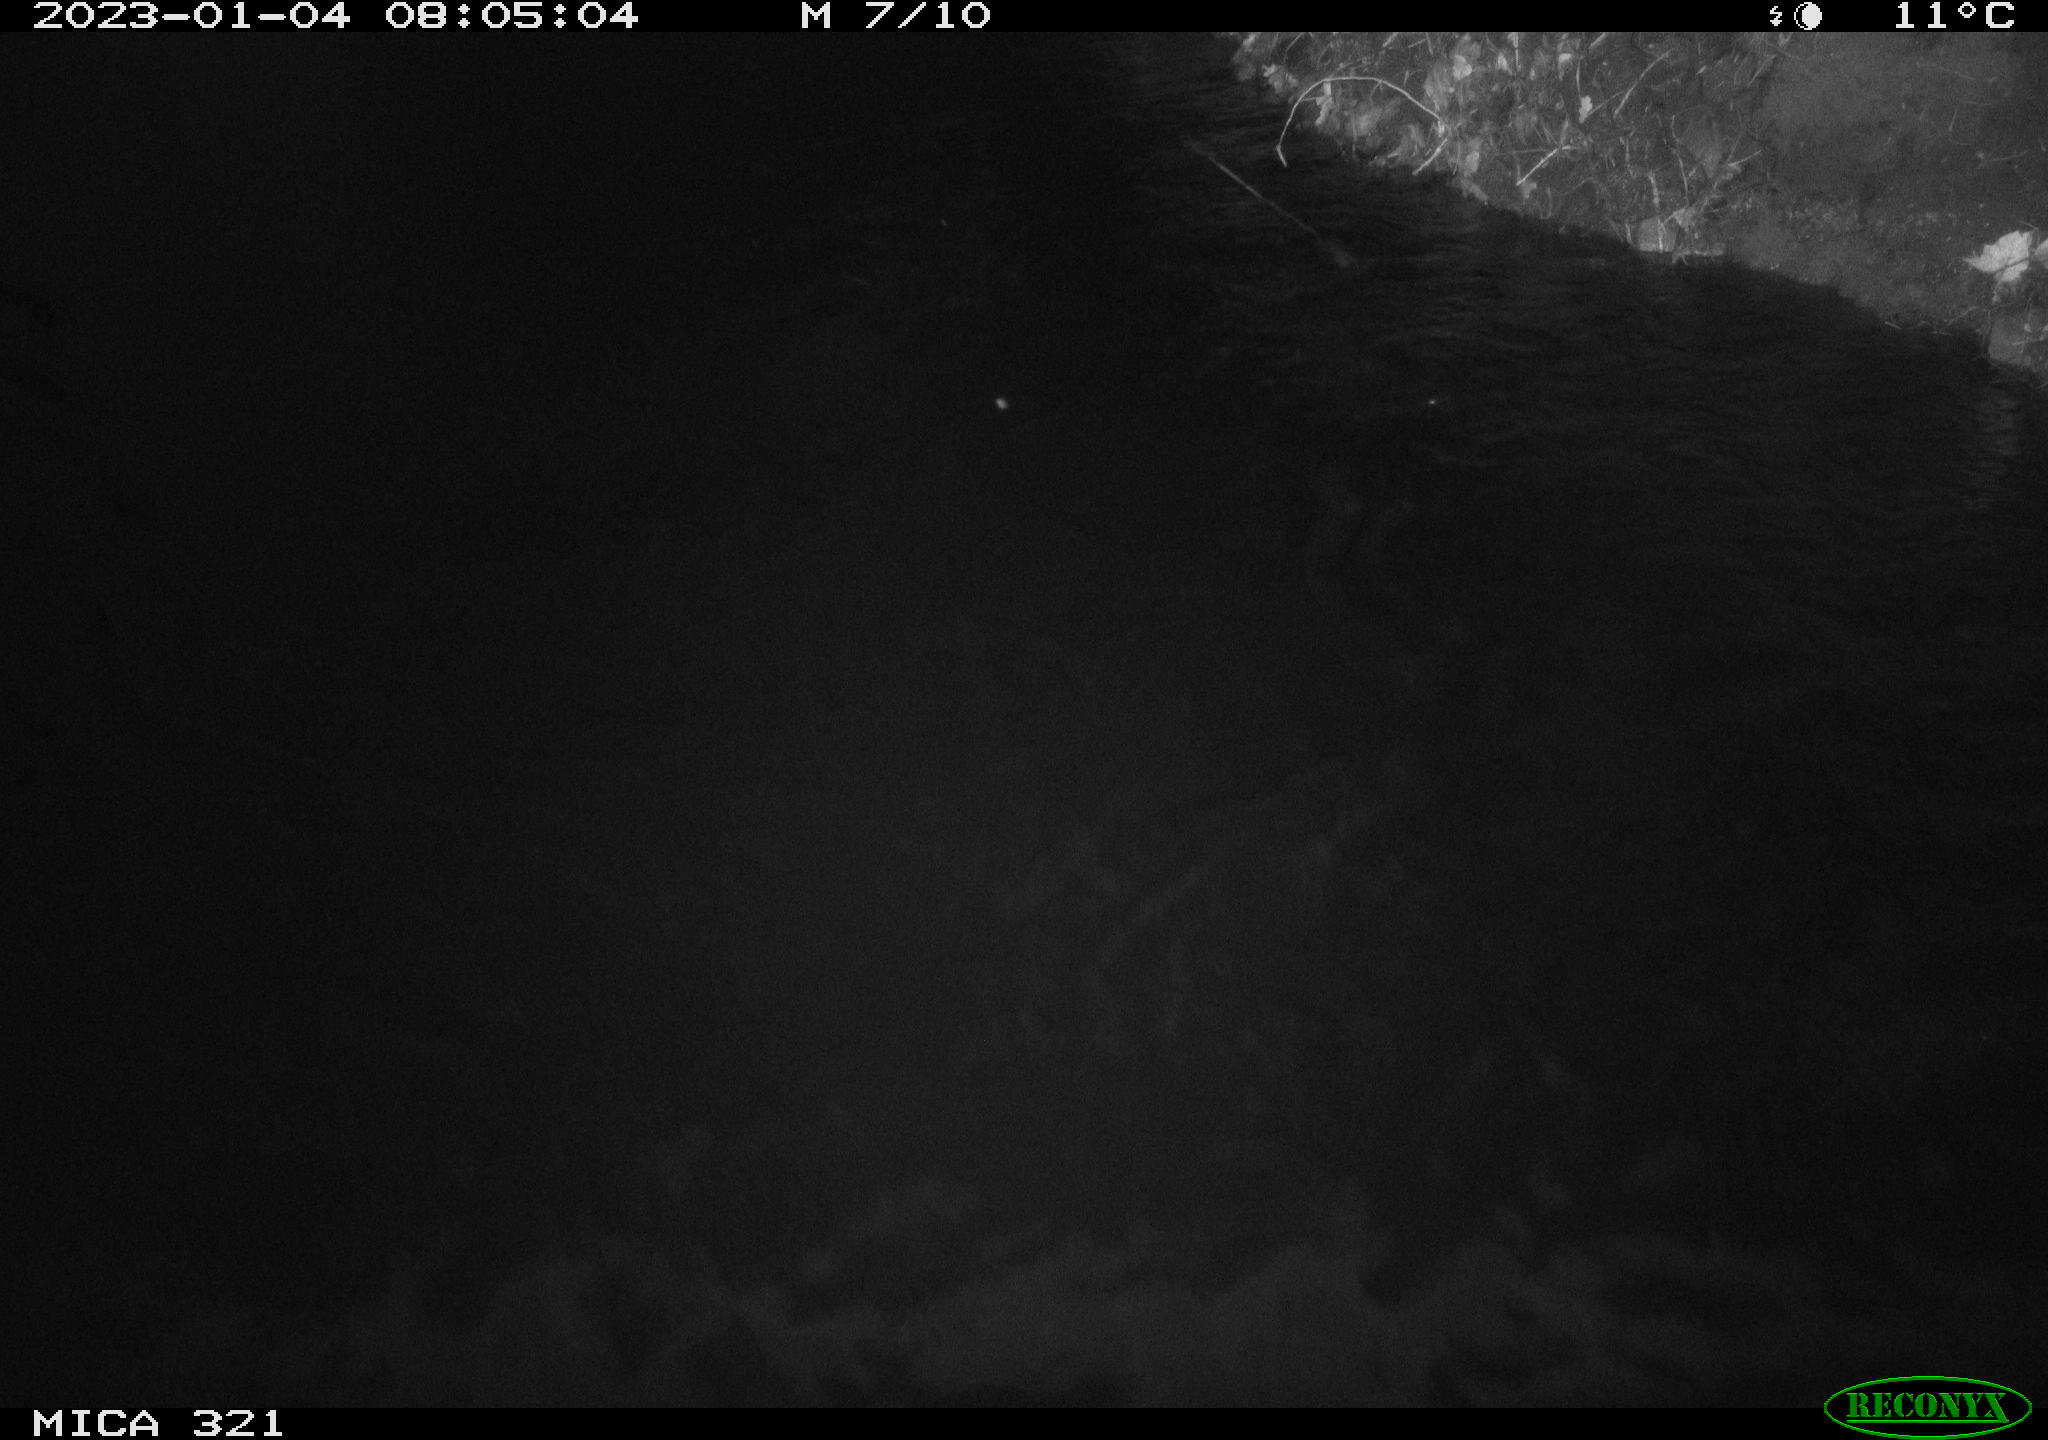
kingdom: Animalia
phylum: Chordata
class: Aves
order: Anseriformes
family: Anatidae
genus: Anas
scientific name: Anas
